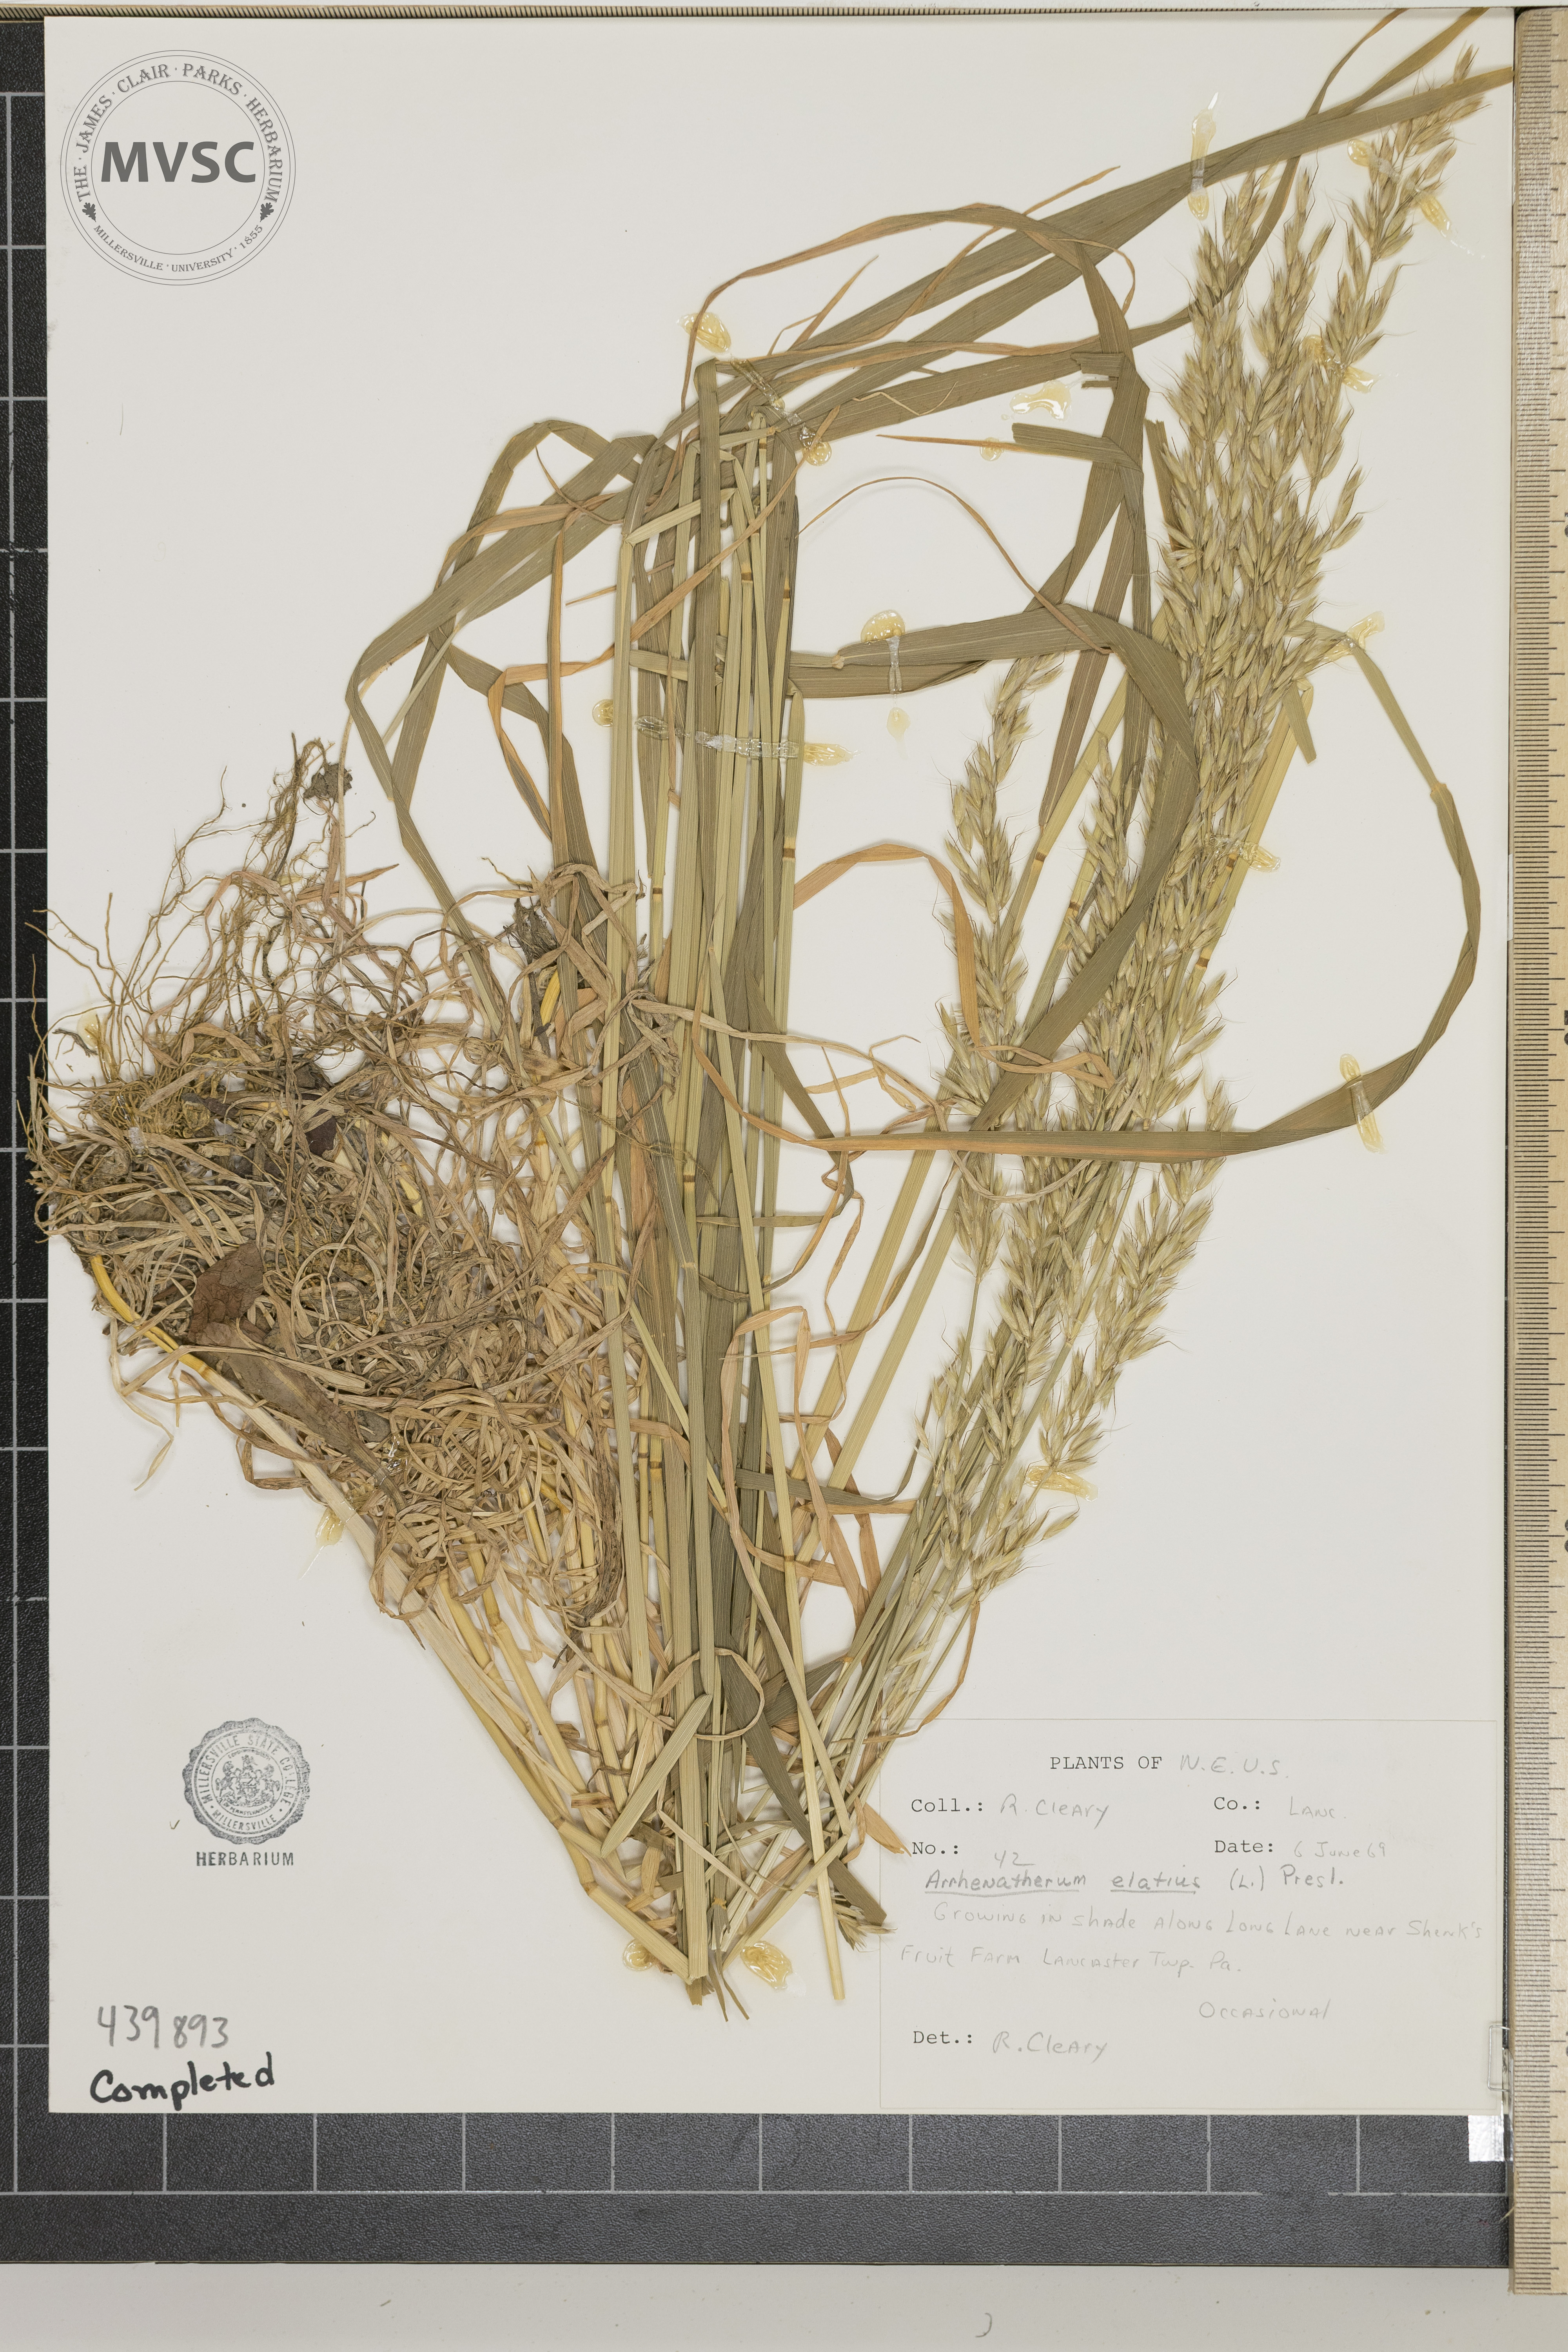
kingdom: Plantae
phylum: Tracheophyta
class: Liliopsida
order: Poales
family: Poaceae
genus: Arrhenatherum
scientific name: Arrhenatherum elatius
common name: Tall oatgrass
